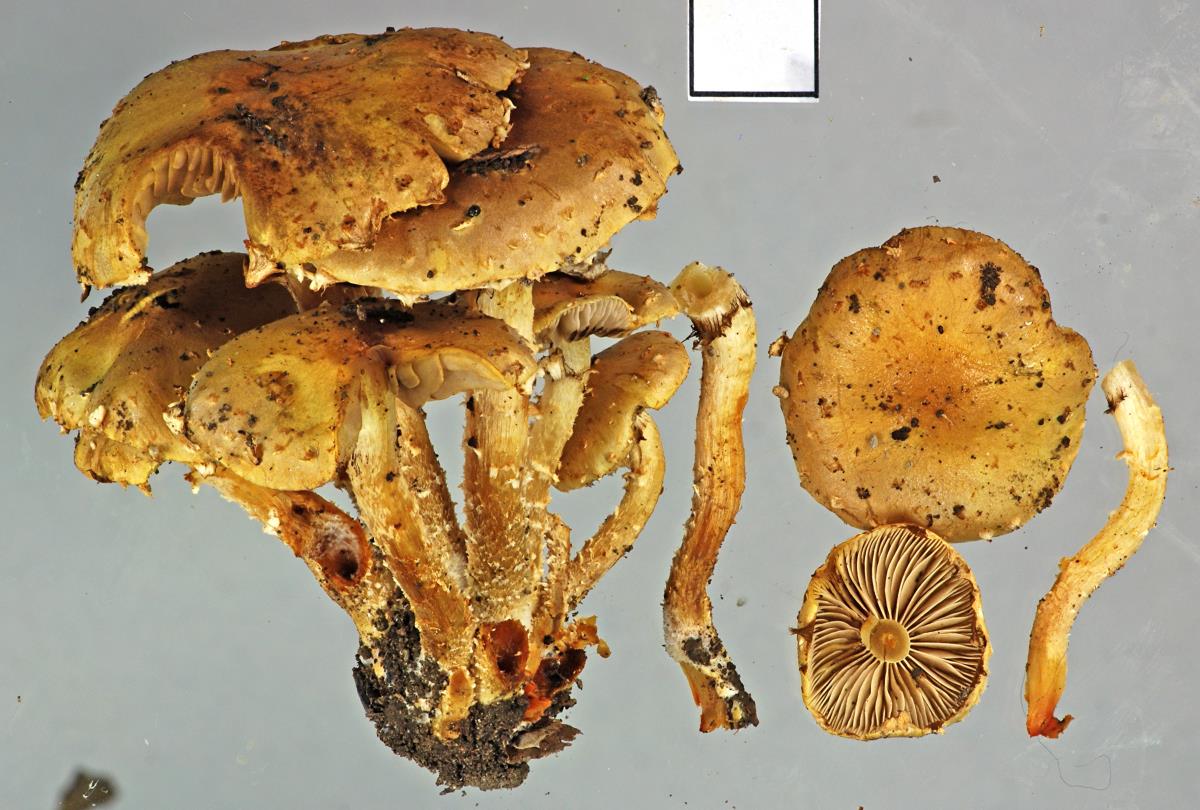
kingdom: Fungi
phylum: Basidiomycota
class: Agaricomycetes
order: Agaricales
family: Strophariaceae
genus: Pholiota
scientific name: Pholiota subflammans
